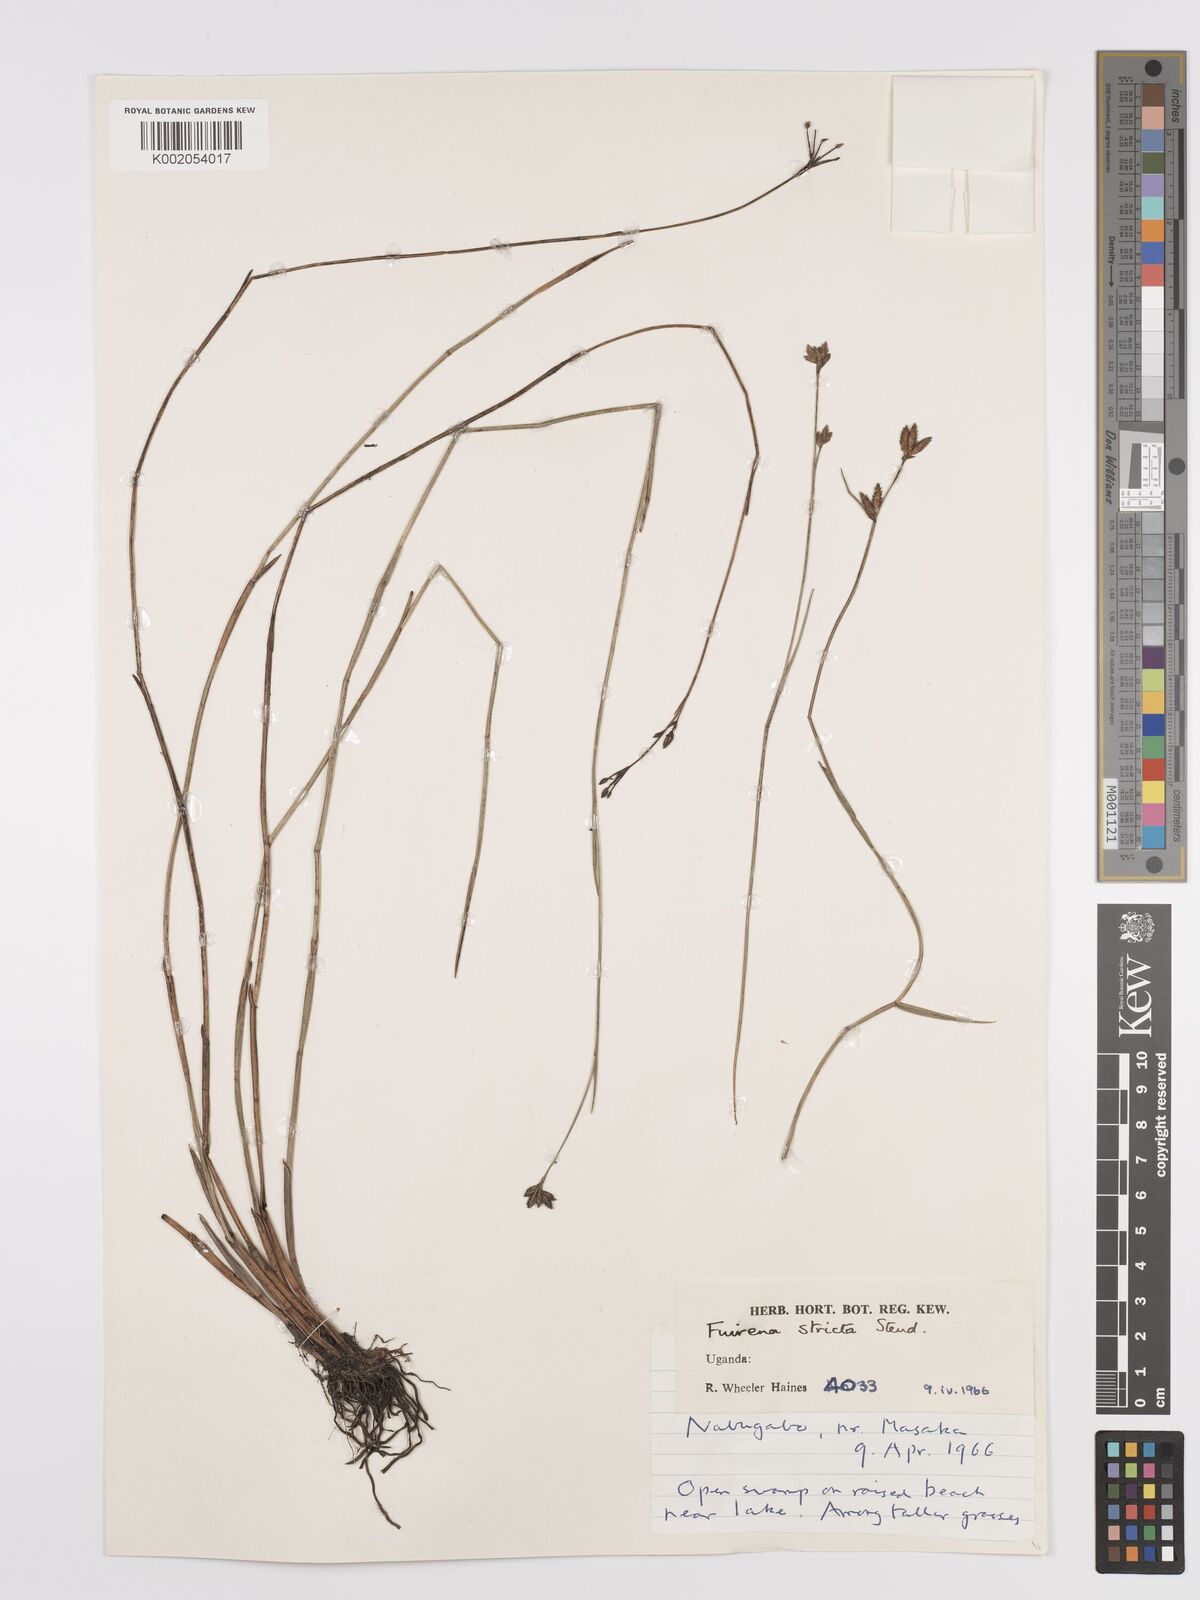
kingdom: Plantae
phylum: Tracheophyta
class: Liliopsida
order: Poales
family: Cyperaceae
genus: Fuirena
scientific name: Fuirena stricta
